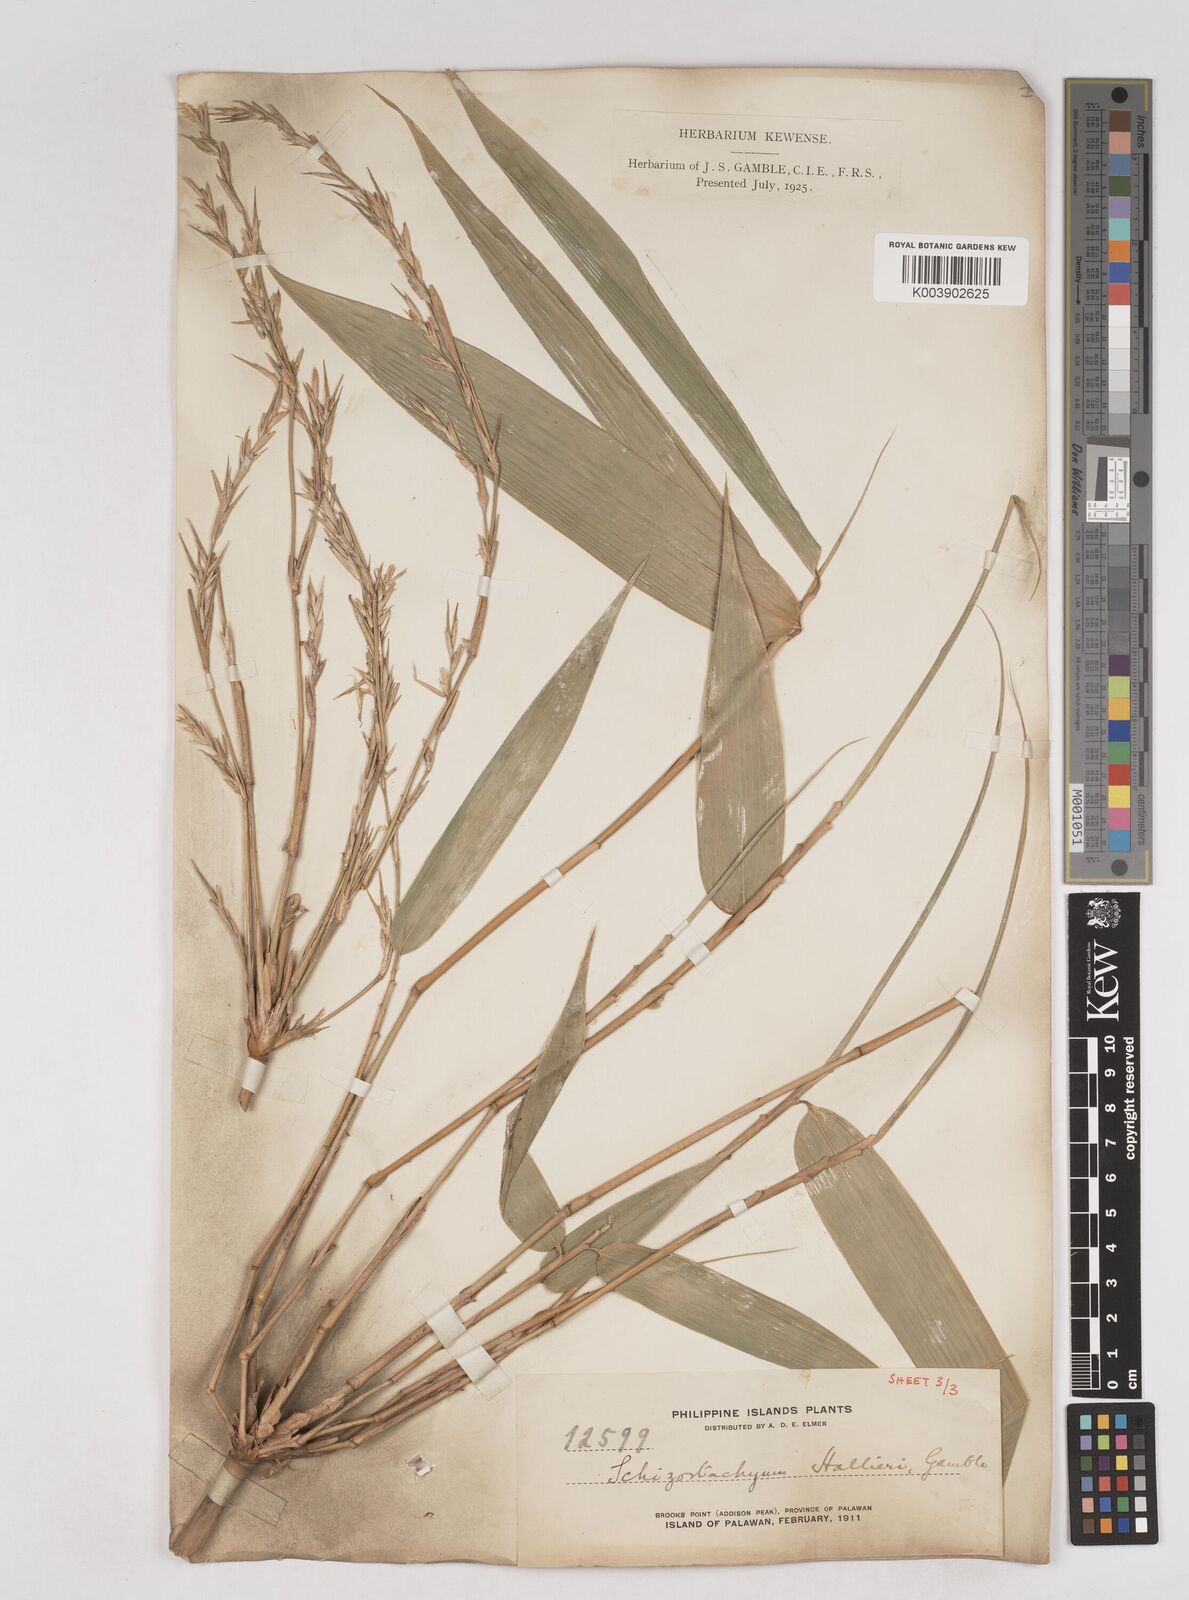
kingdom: Plantae
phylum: Tracheophyta
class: Liliopsida
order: Poales
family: Poaceae
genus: Schizostachyum
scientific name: Schizostachyum lima
